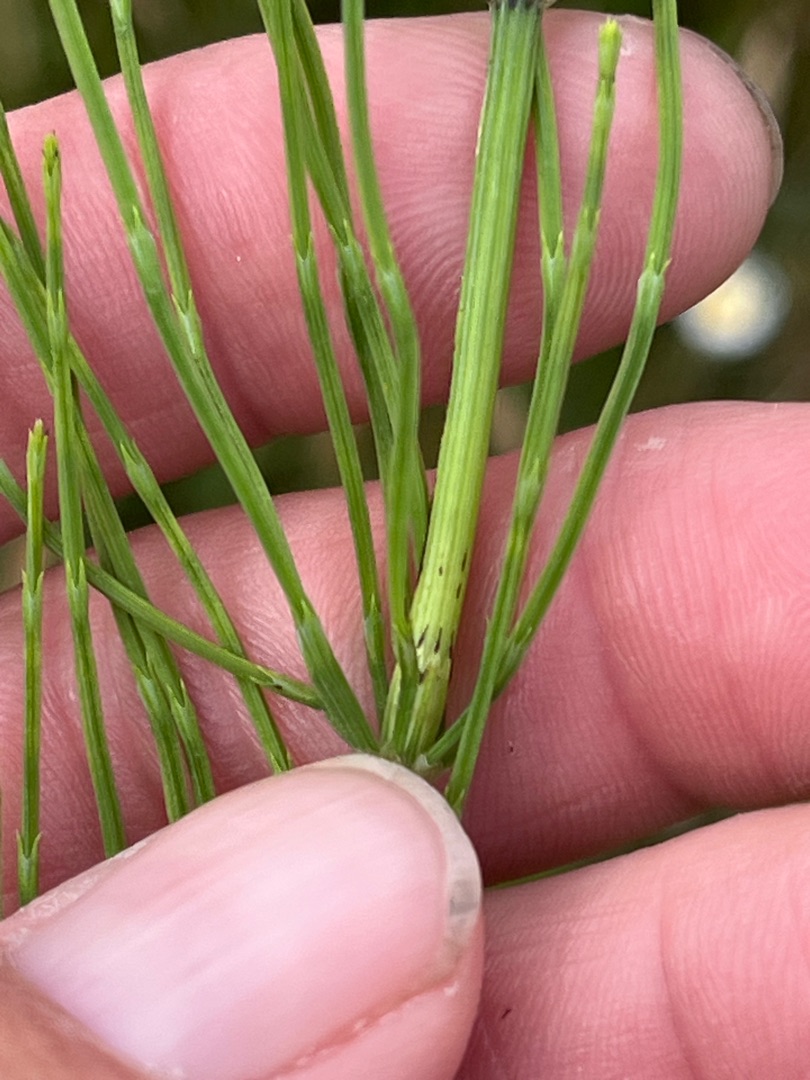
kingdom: Plantae
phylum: Tracheophyta
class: Polypodiopsida
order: Equisetales
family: Equisetaceae
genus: Equisetum
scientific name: Equisetum arvense
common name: Ager-padderok
